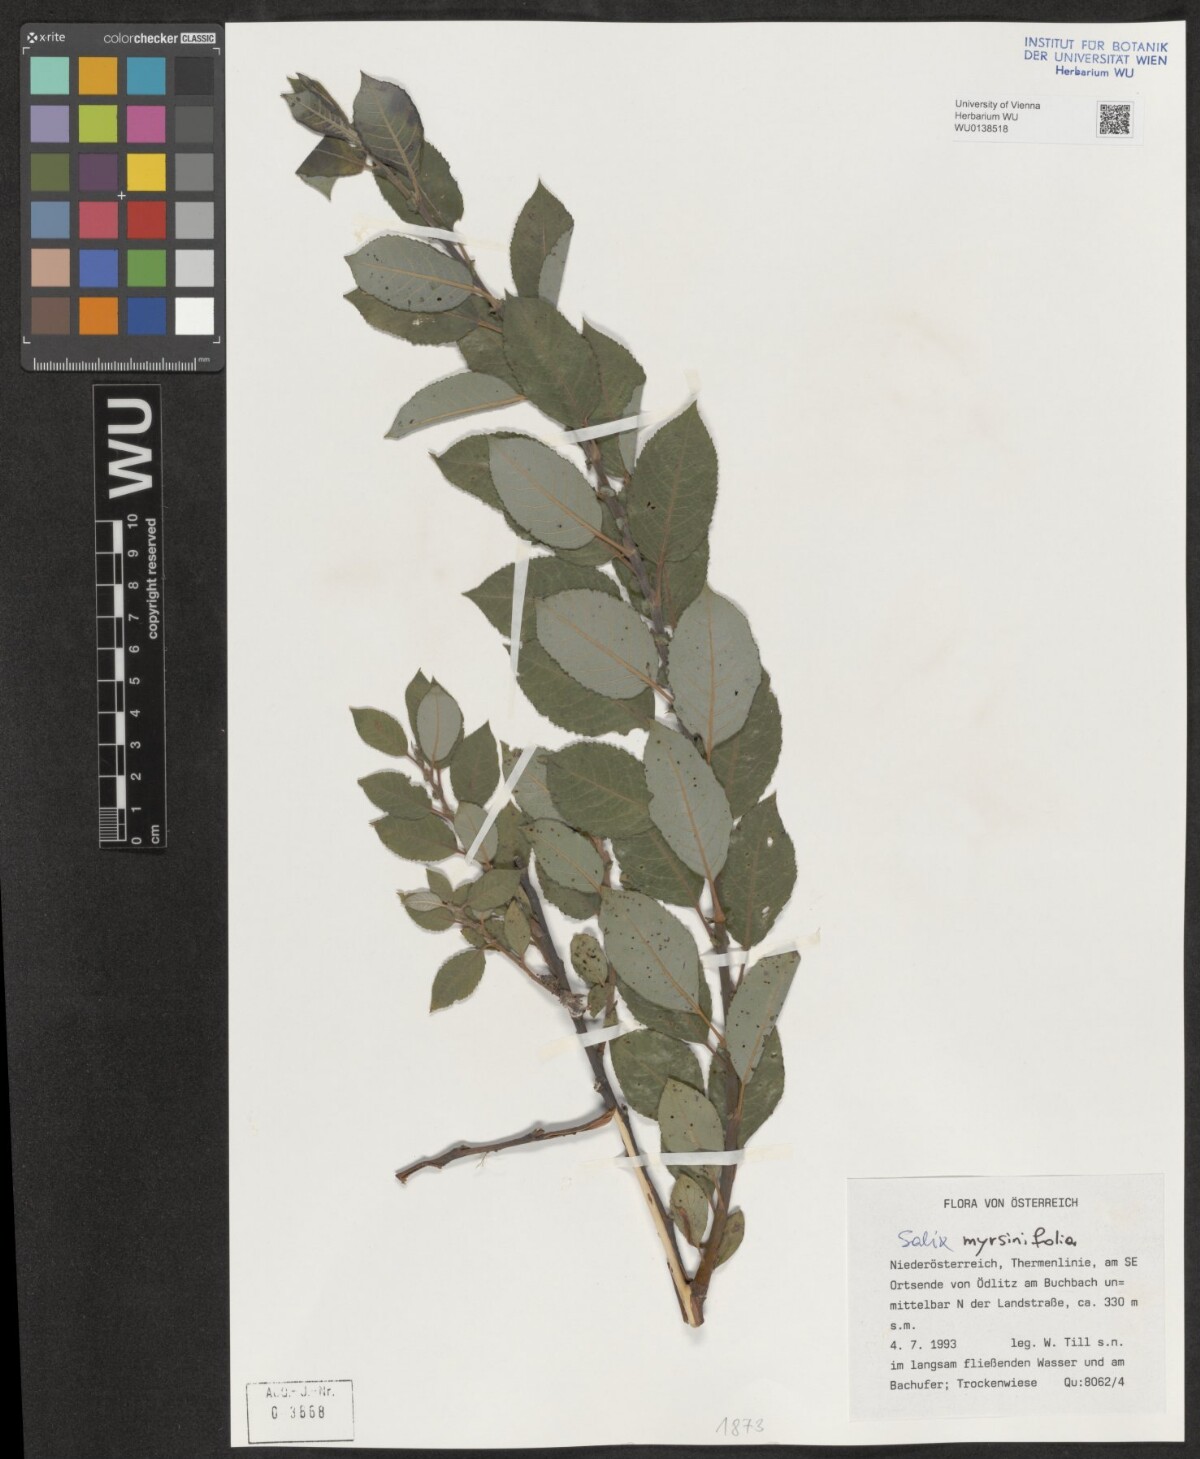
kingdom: Plantae
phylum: Tracheophyta
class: Magnoliopsida
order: Malpighiales
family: Salicaceae
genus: Salix
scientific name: Salix myrsinifolia
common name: Dark-leaved willow
